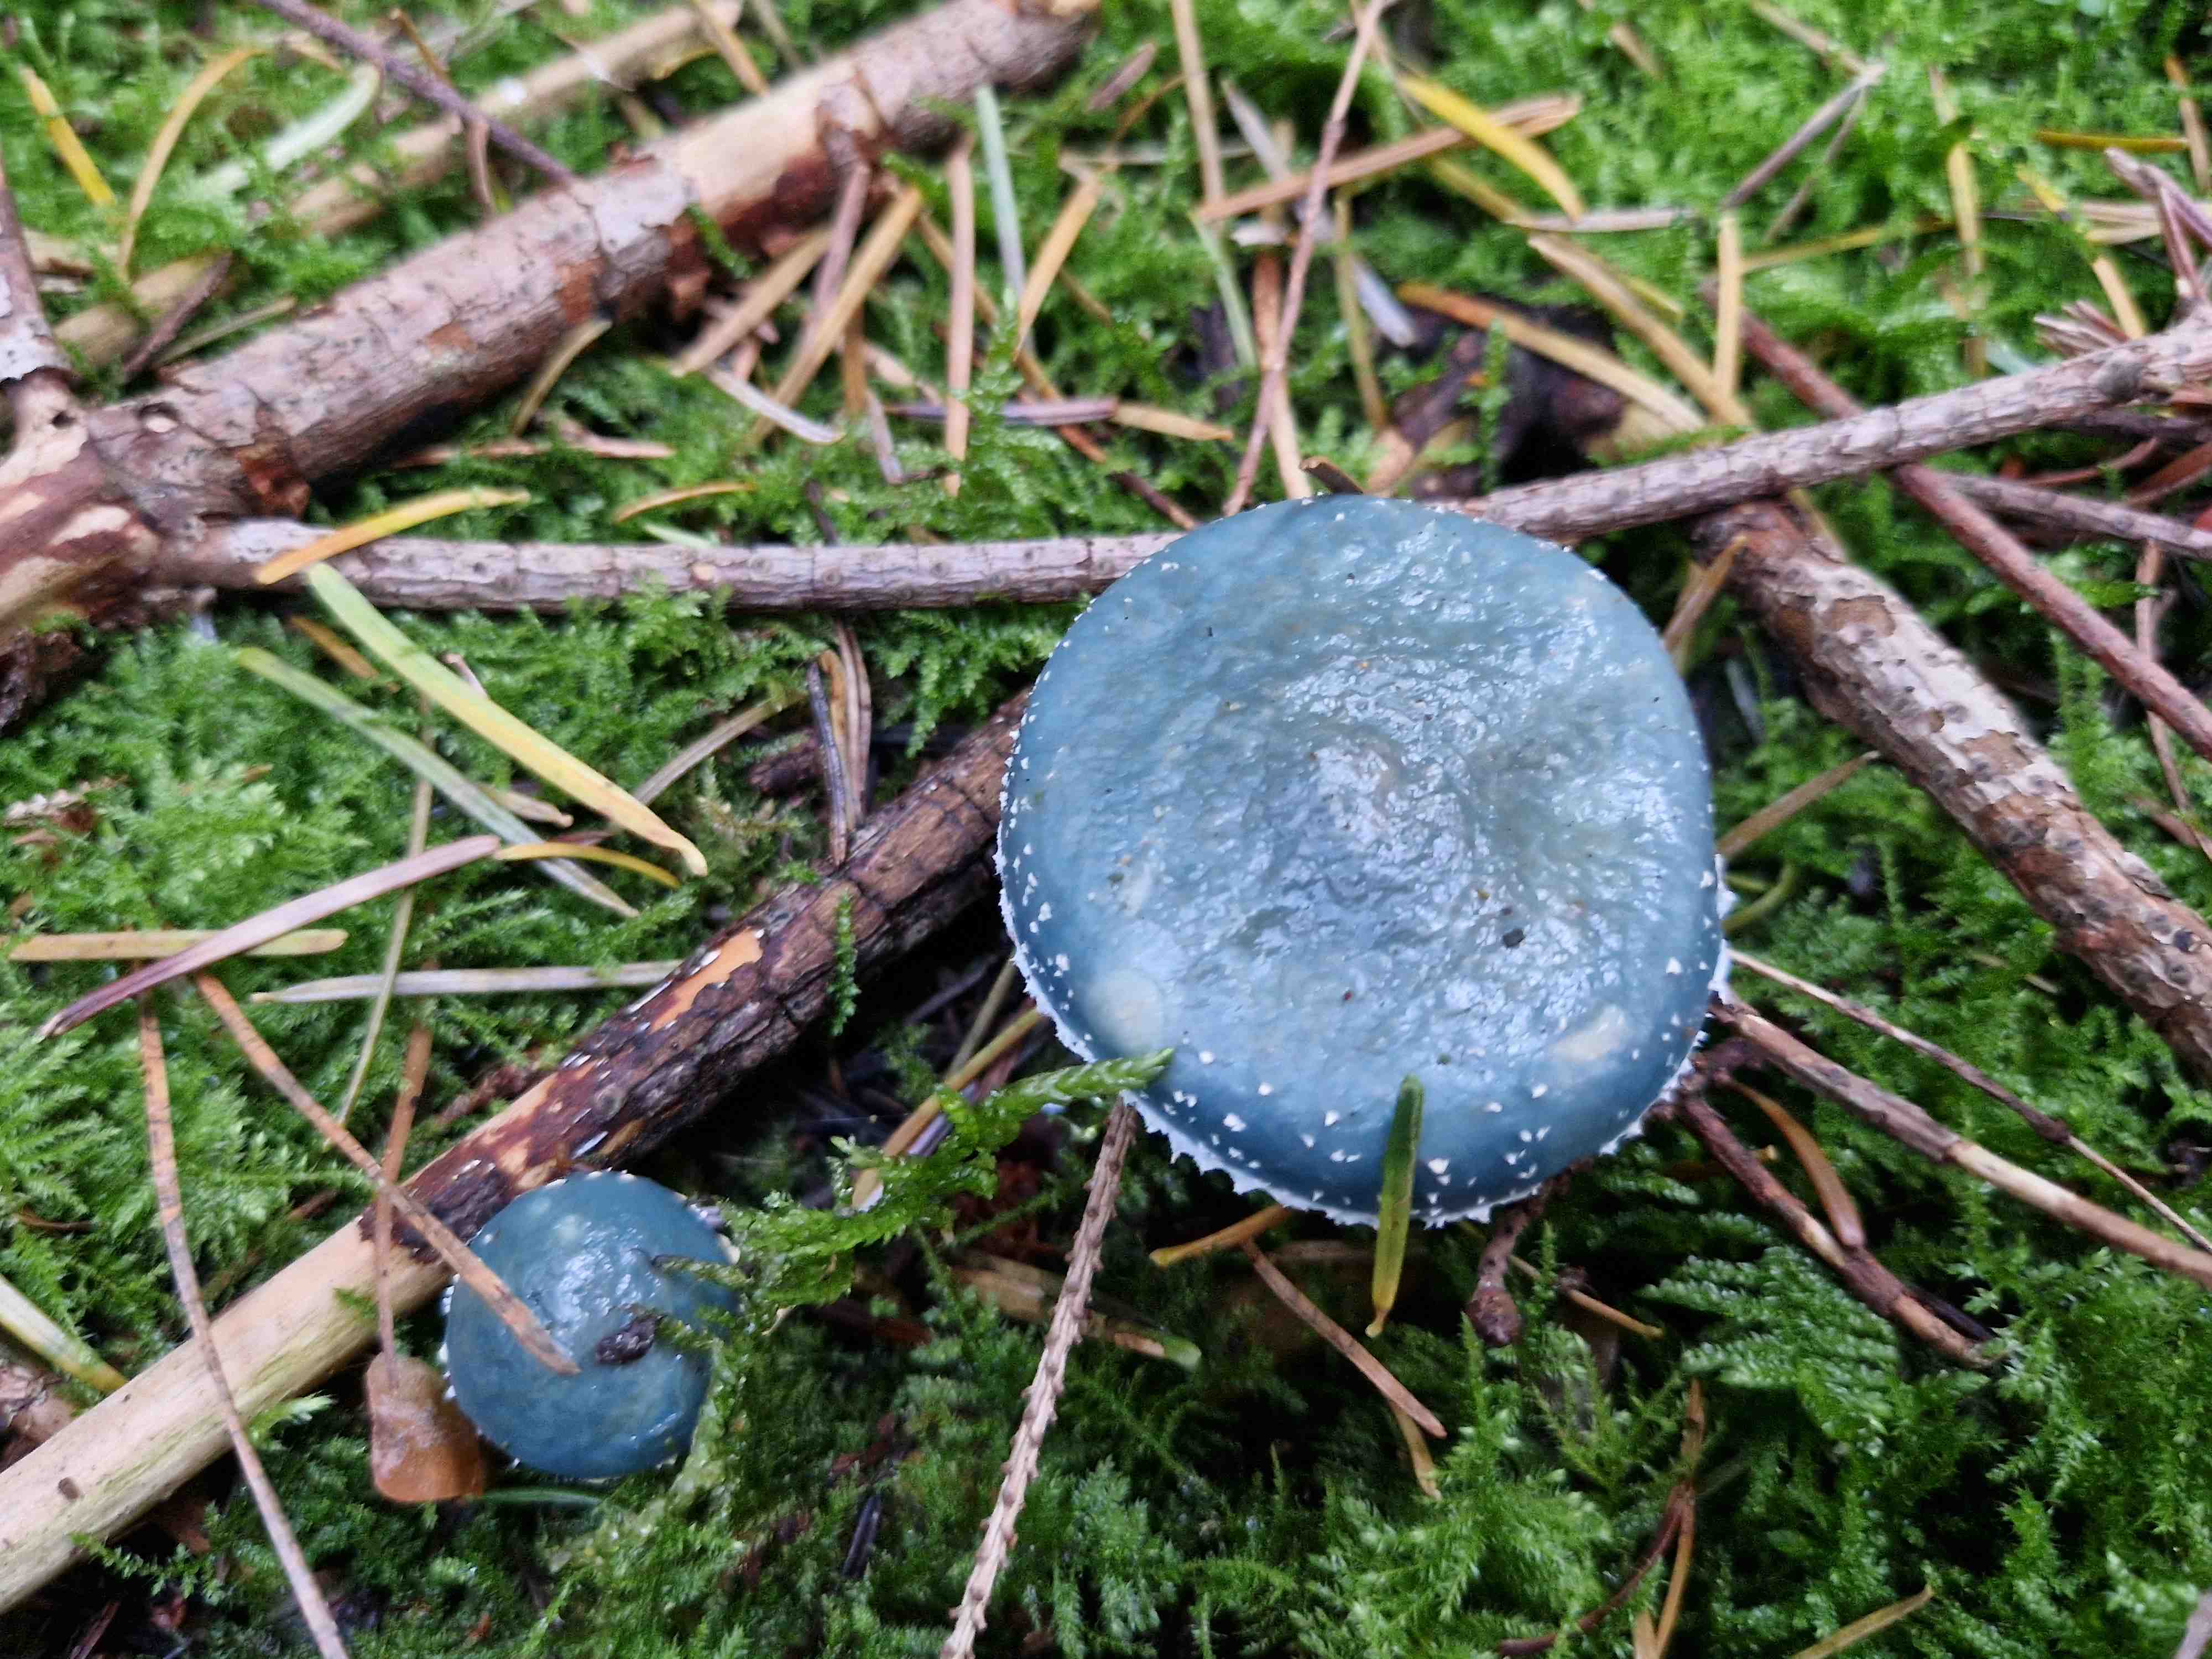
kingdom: Fungi
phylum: Basidiomycota
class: Agaricomycetes
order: Agaricales
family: Strophariaceae
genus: Stropharia
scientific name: Stropharia cyanea
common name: blågrøn bredblad
